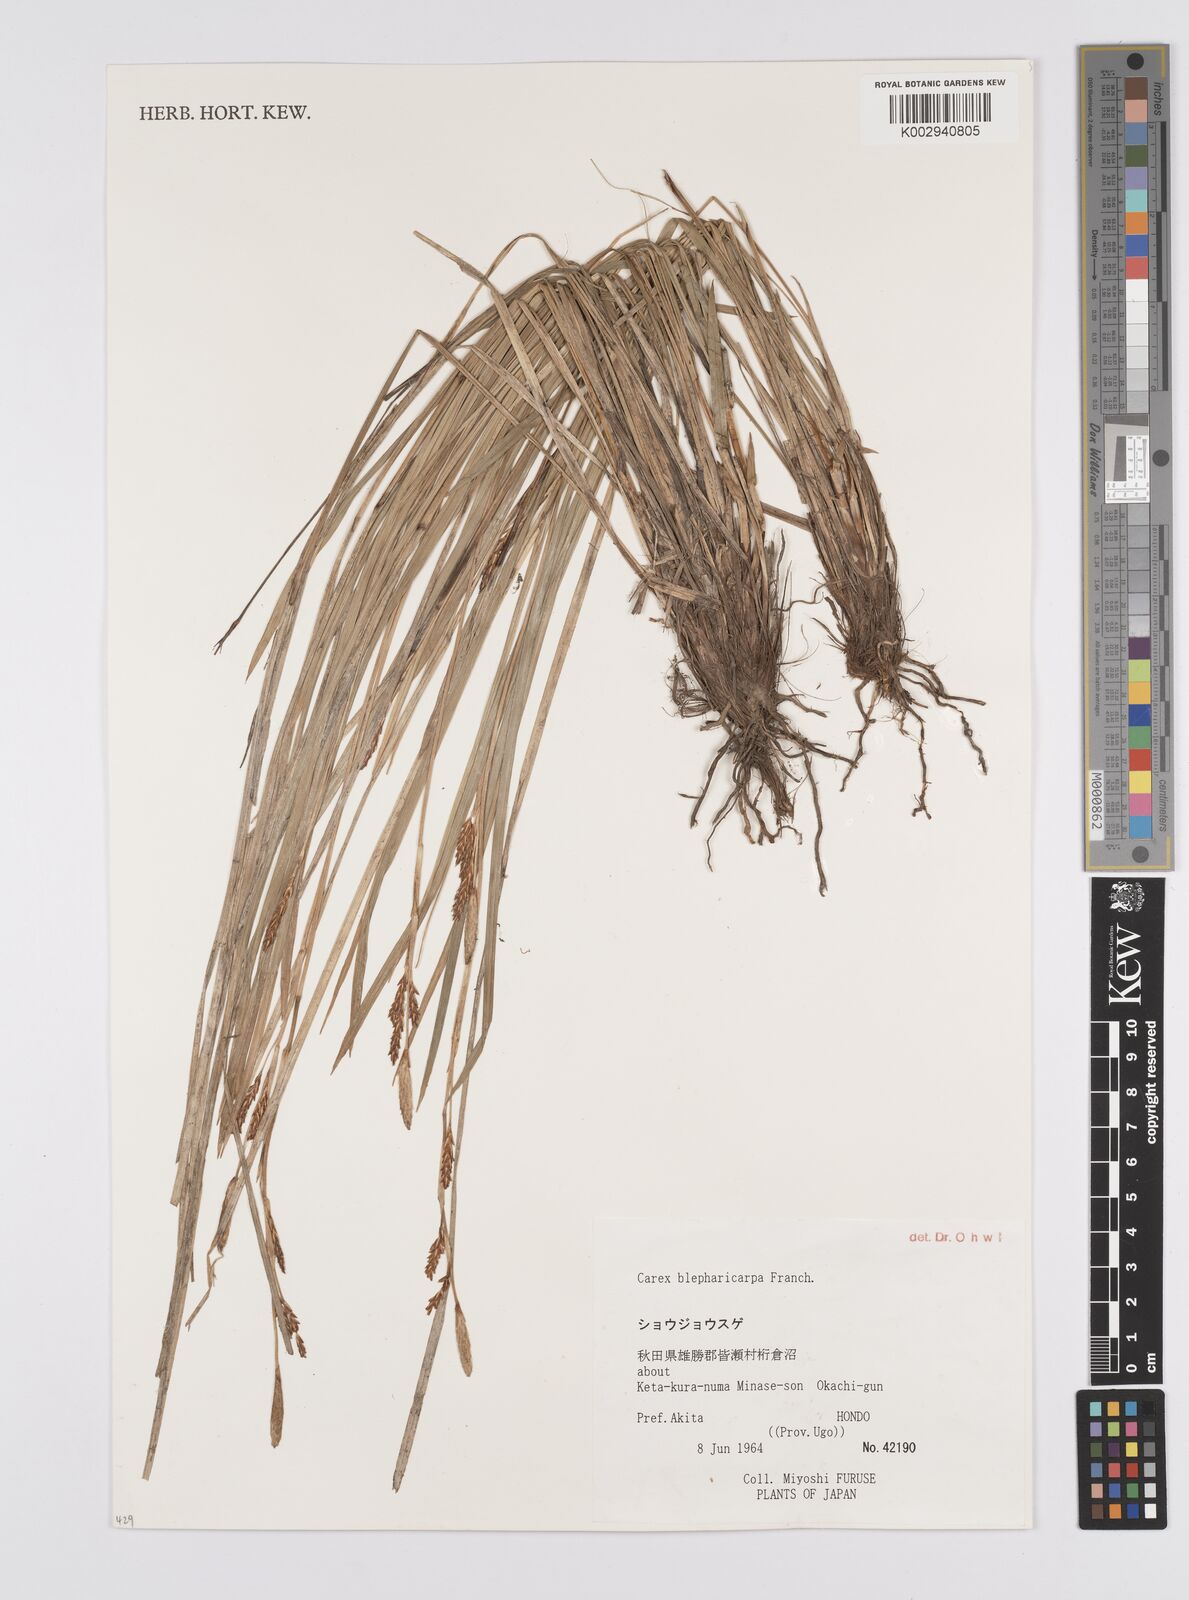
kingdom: Plantae
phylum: Tracheophyta
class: Liliopsida
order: Poales
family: Cyperaceae
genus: Carex
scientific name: Carex blepharicarpa
